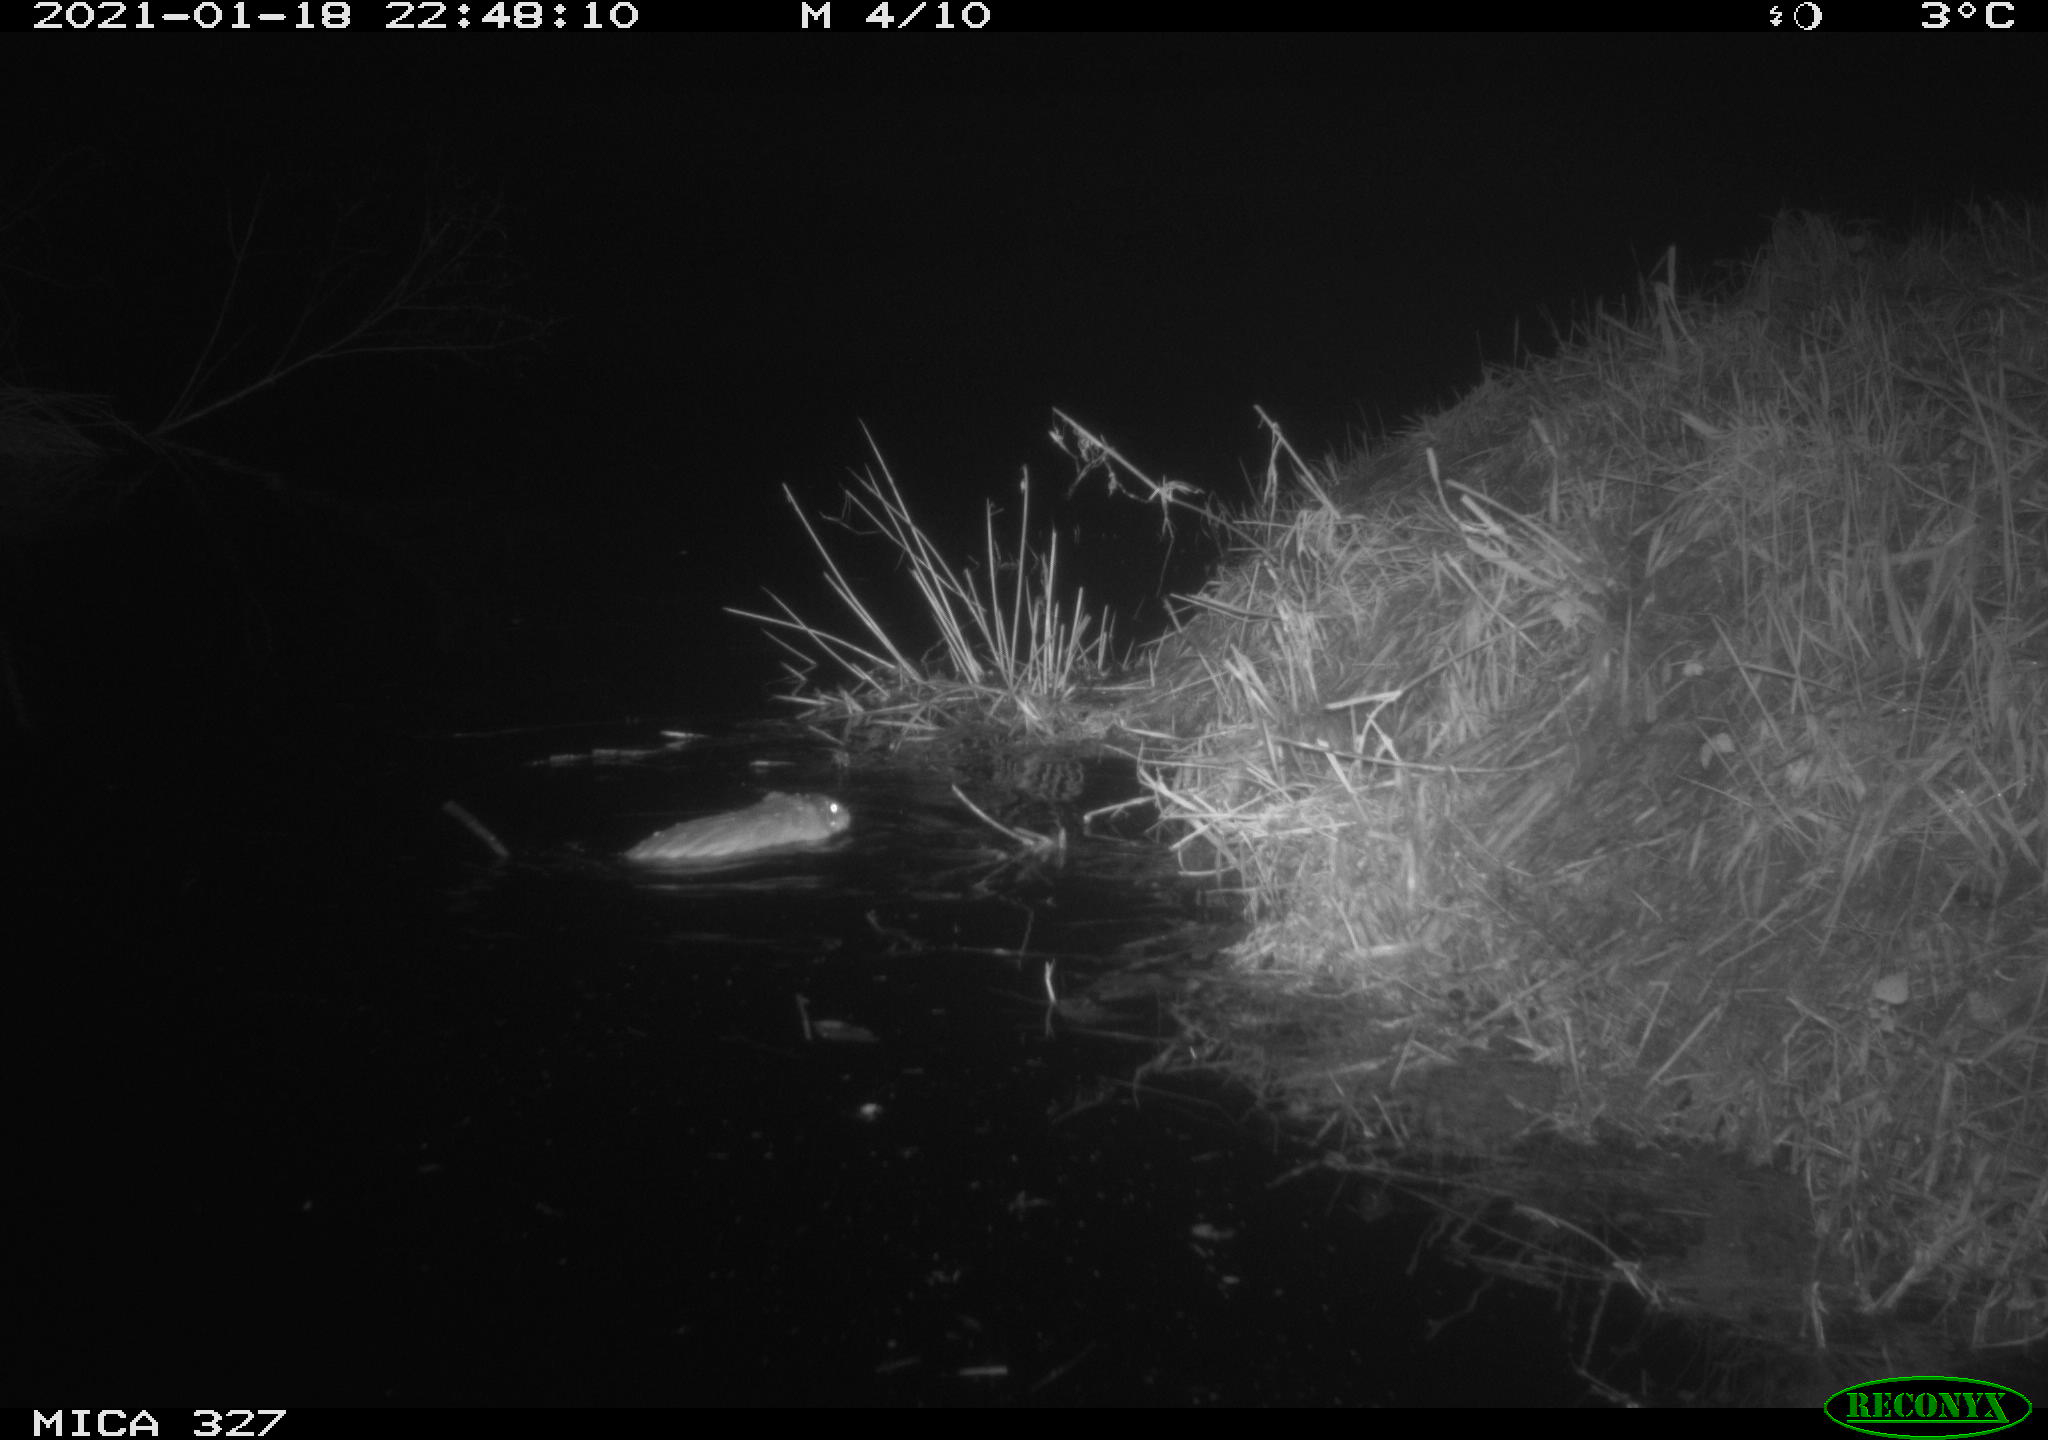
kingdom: Animalia
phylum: Chordata
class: Mammalia
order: Rodentia
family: Cricetidae
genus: Ondatra
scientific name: Ondatra zibethicus
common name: Muskrat
